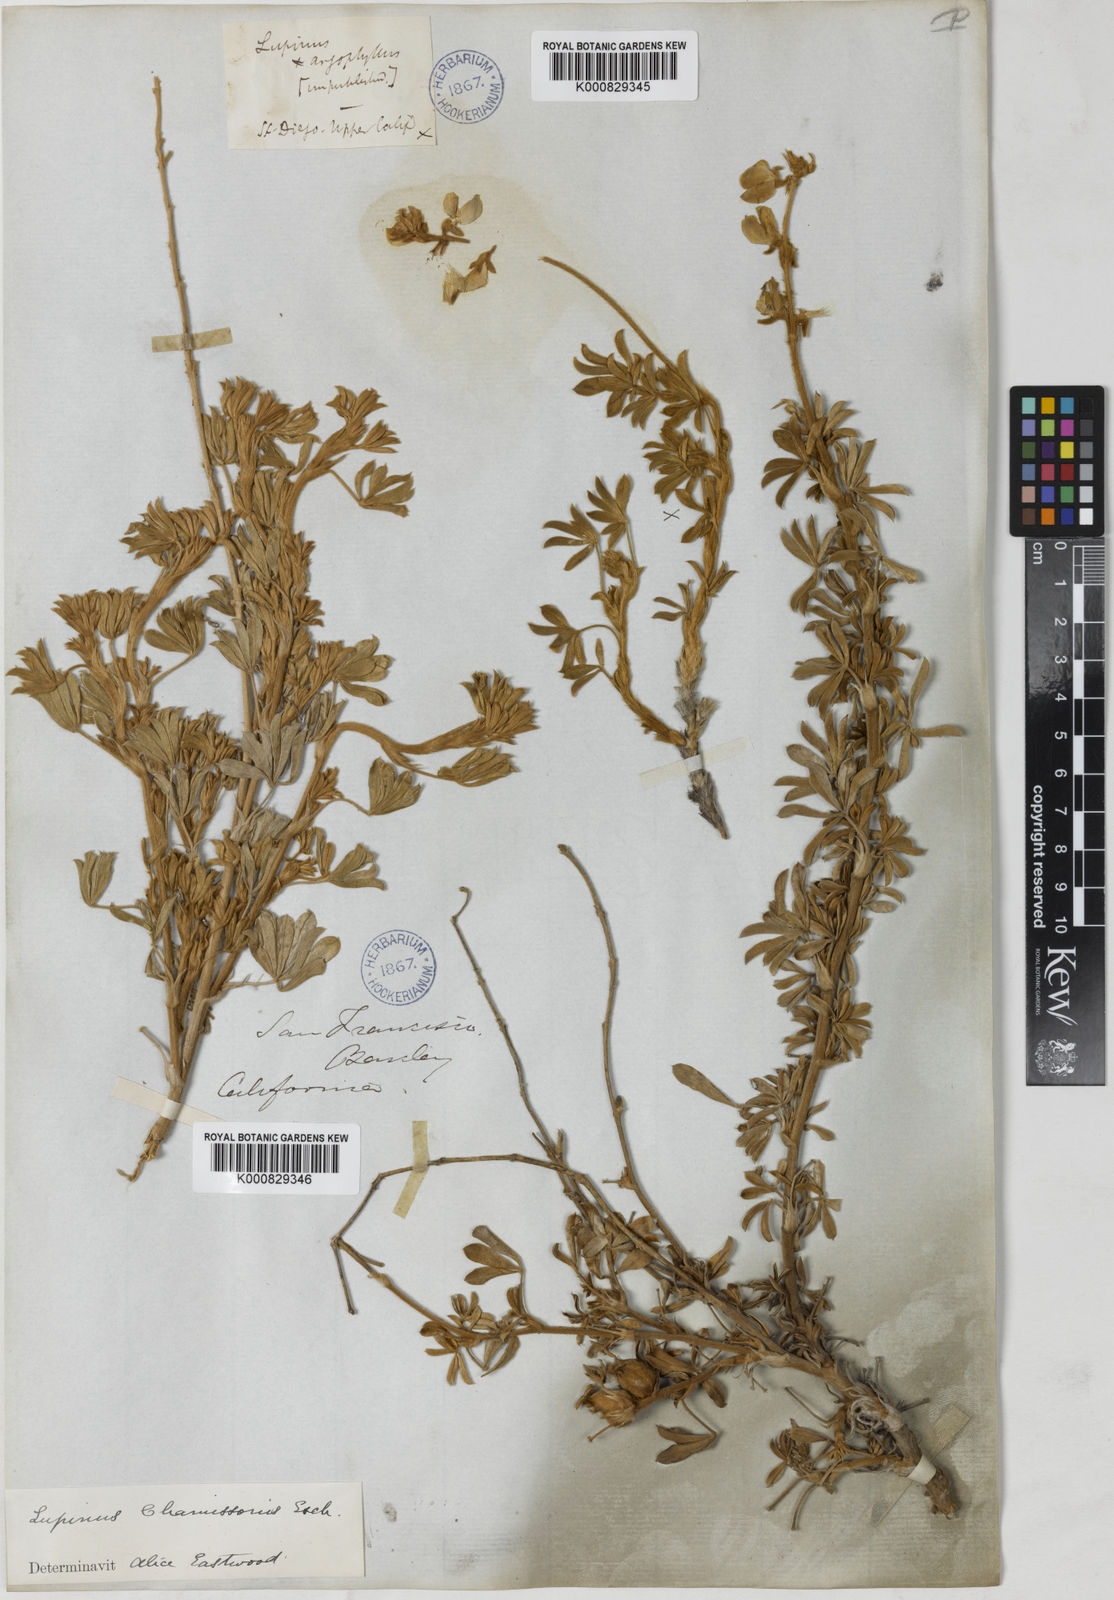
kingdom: Plantae
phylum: Tracheophyta
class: Magnoliopsida
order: Fabales
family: Fabaceae
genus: Lupinus
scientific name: Lupinus chamissonis
